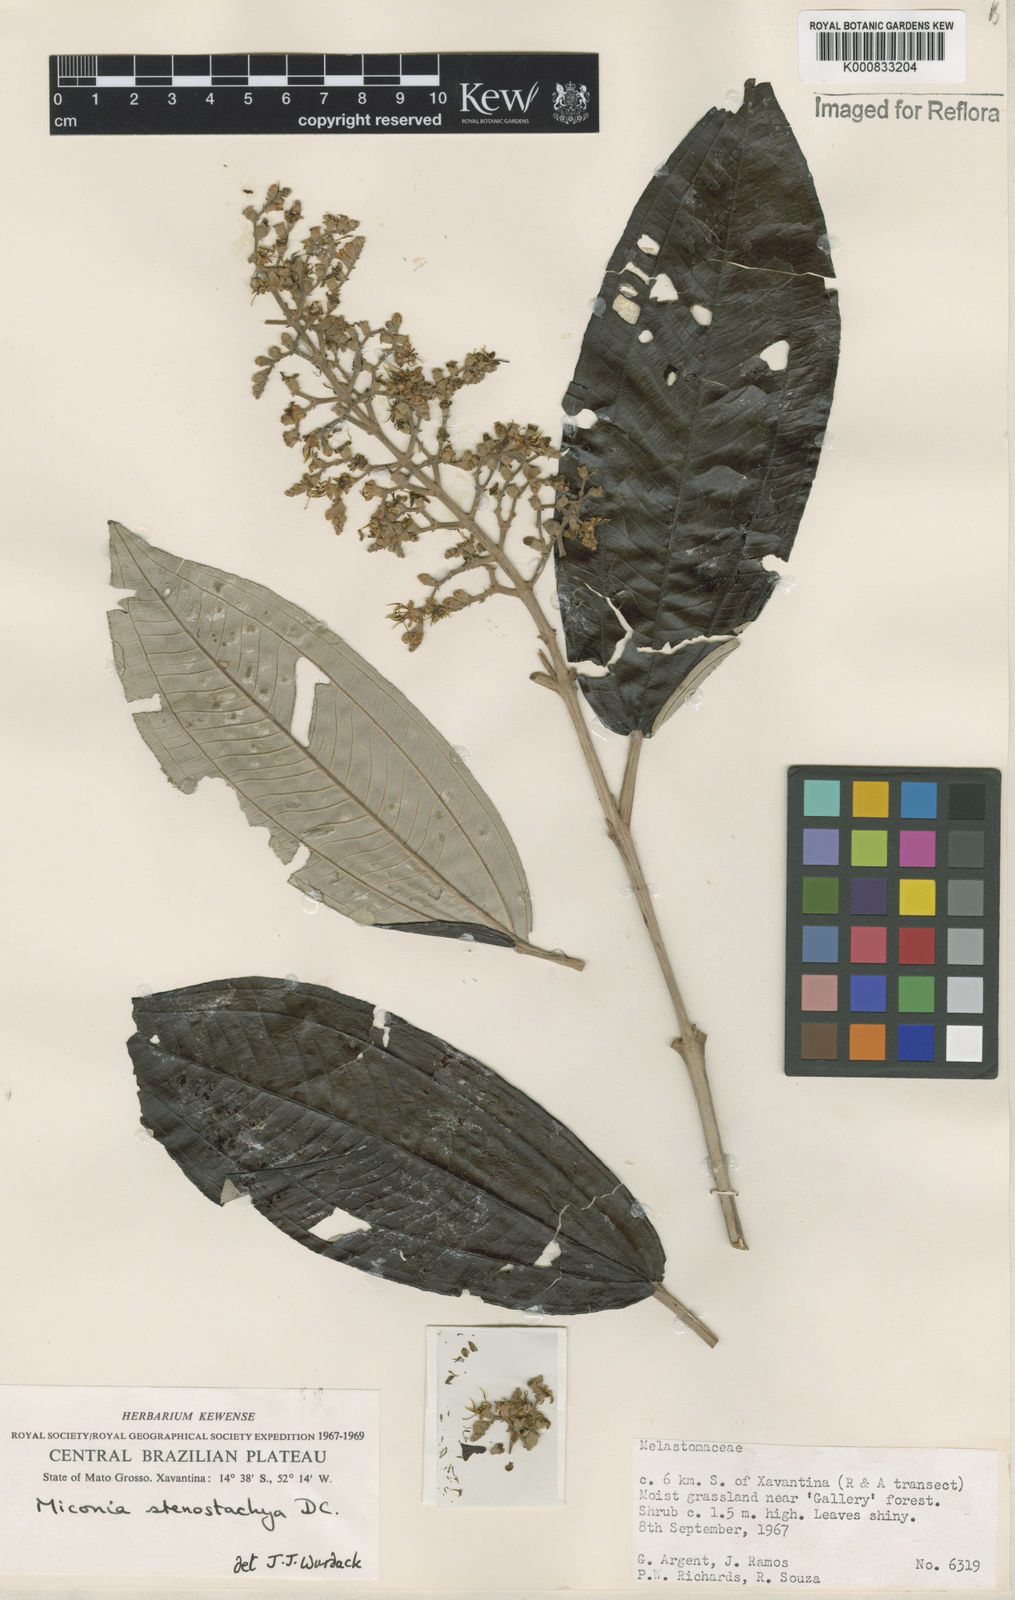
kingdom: Plantae
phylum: Tracheophyta
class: Magnoliopsida
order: Myrtales
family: Melastomataceae
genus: Miconia
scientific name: Miconia stenostachya
